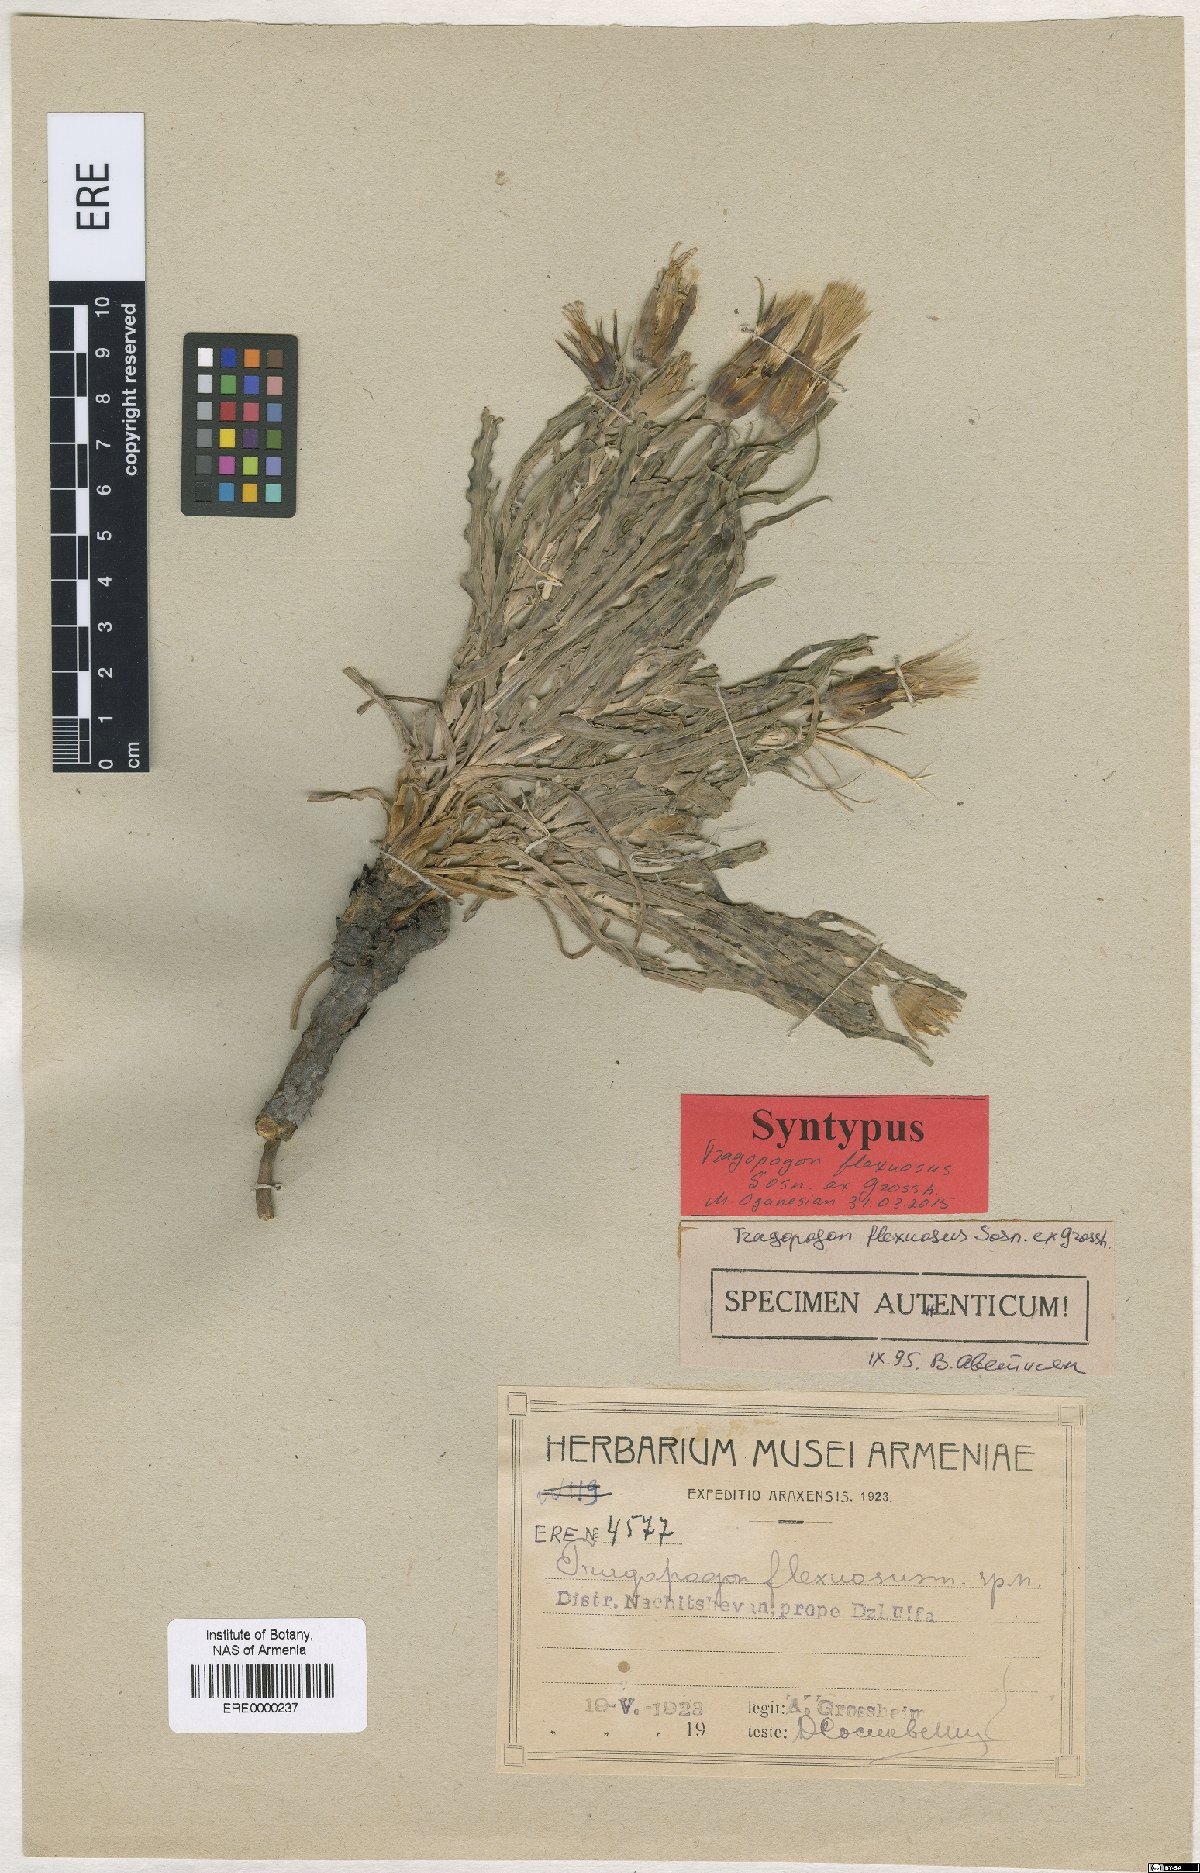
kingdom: Plantae
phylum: Tracheophyta
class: Magnoliopsida
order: Asterales
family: Asteraceae
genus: Tragopogon
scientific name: Tragopogon marginatus
